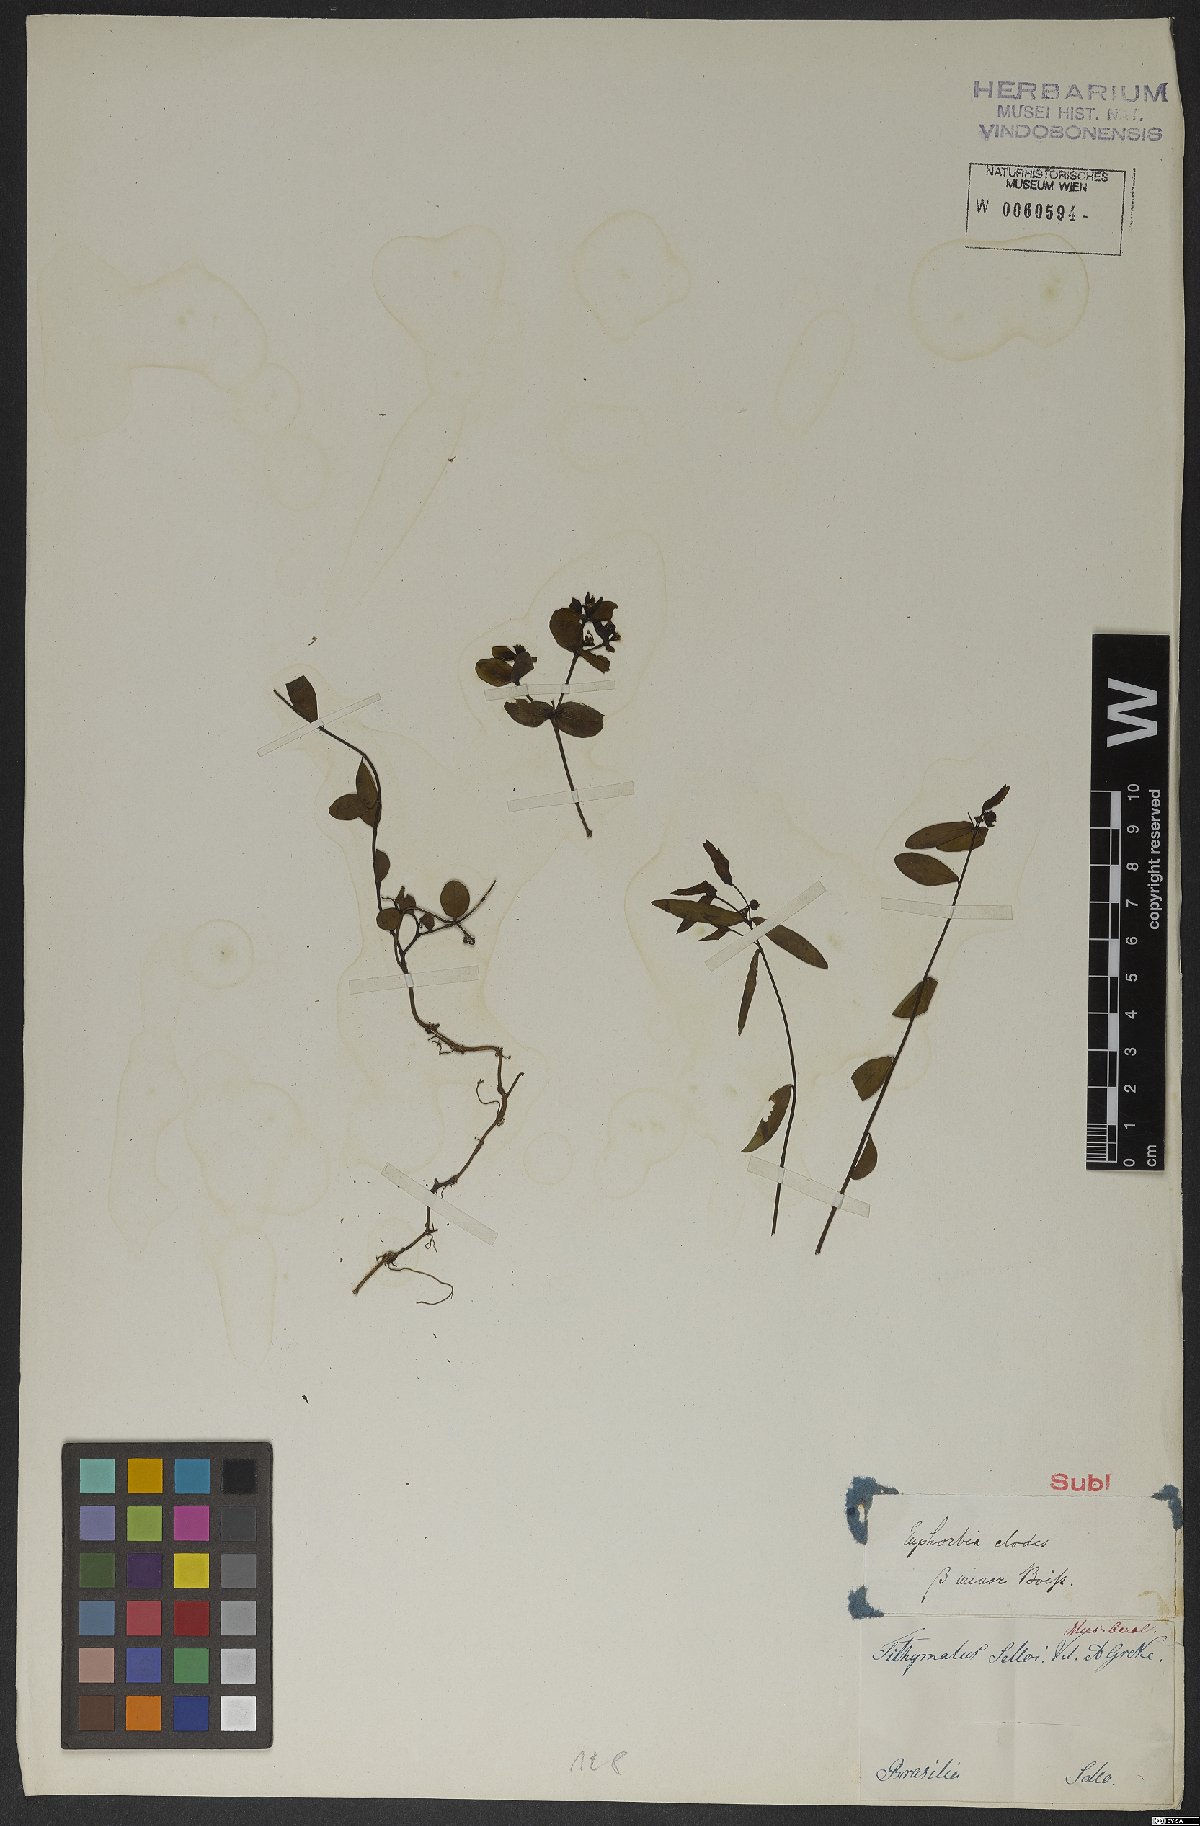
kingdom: Plantae
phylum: Tracheophyta
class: Magnoliopsida
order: Malpighiales
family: Euphorbiaceae
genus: Euphorbia
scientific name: Euphorbia
